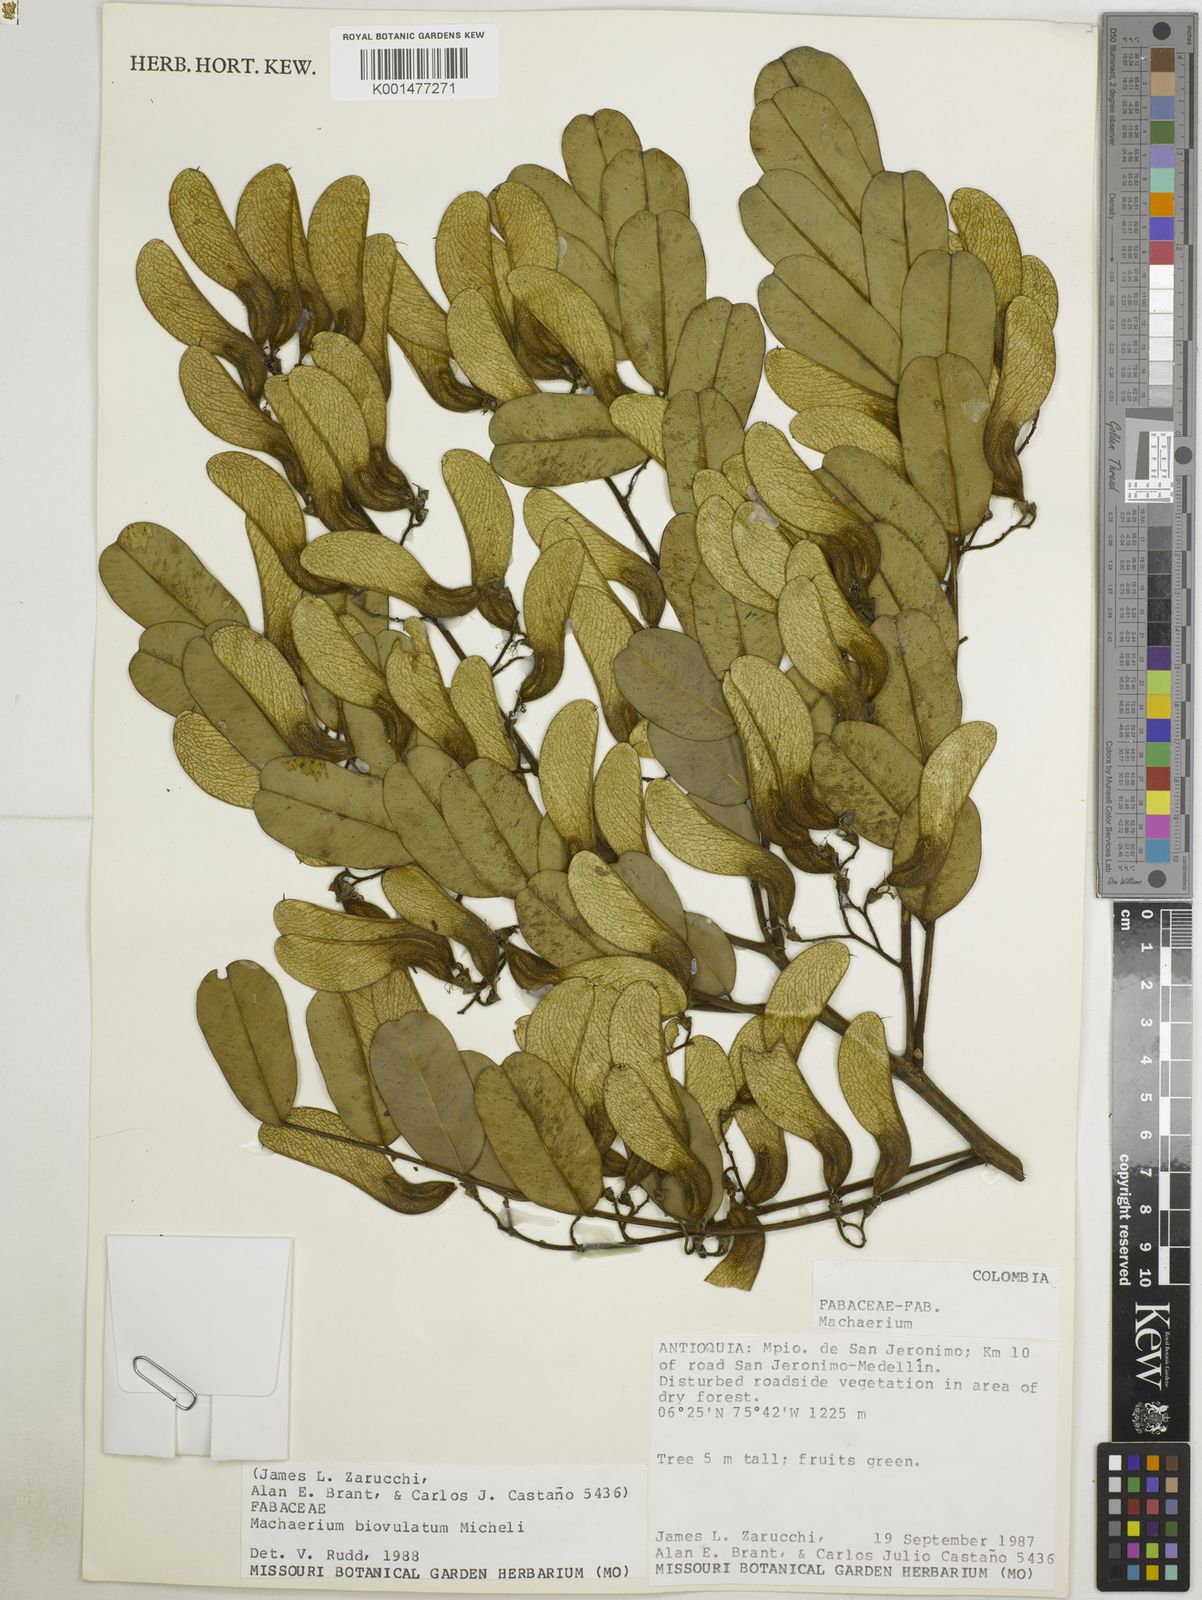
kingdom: Plantae
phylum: Tracheophyta
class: Magnoliopsida
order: Fabales
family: Fabaceae
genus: Machaerium
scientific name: Machaerium biovulatum
